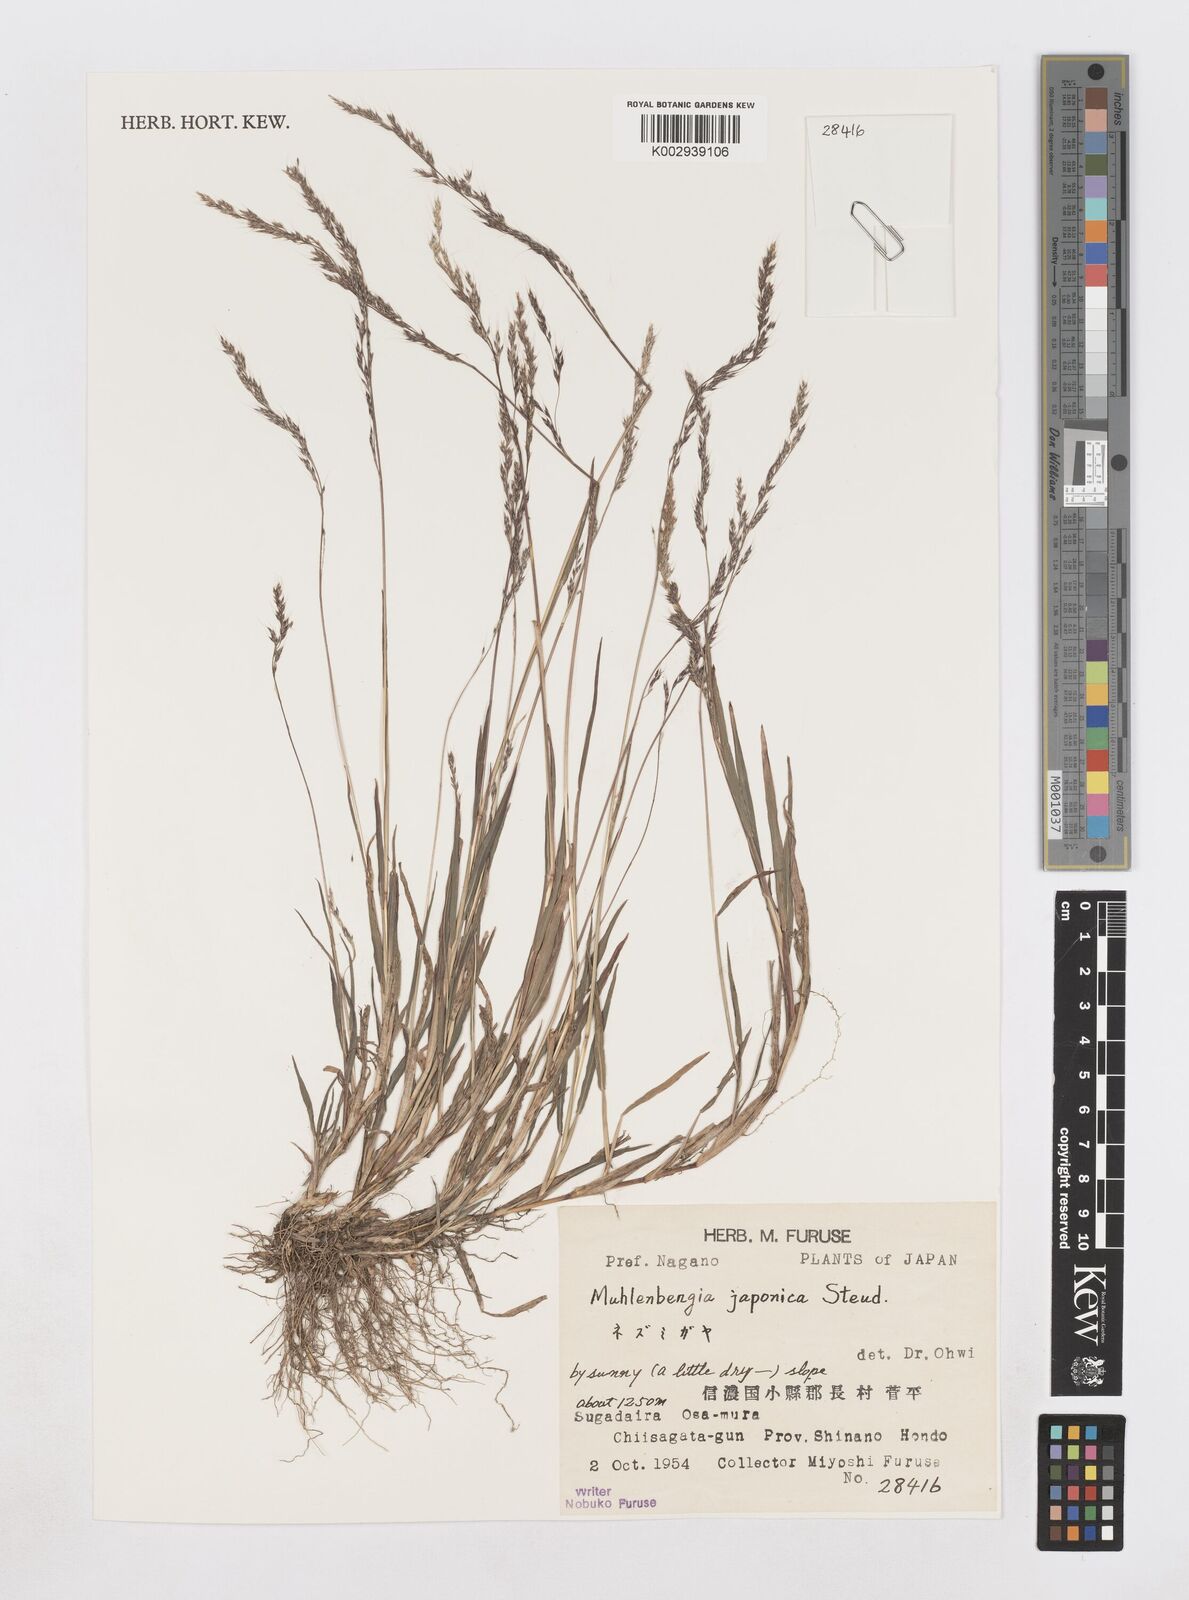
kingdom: Plantae
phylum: Tracheophyta
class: Liliopsida
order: Poales
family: Poaceae
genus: Muhlenbergia
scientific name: Muhlenbergia japonica
